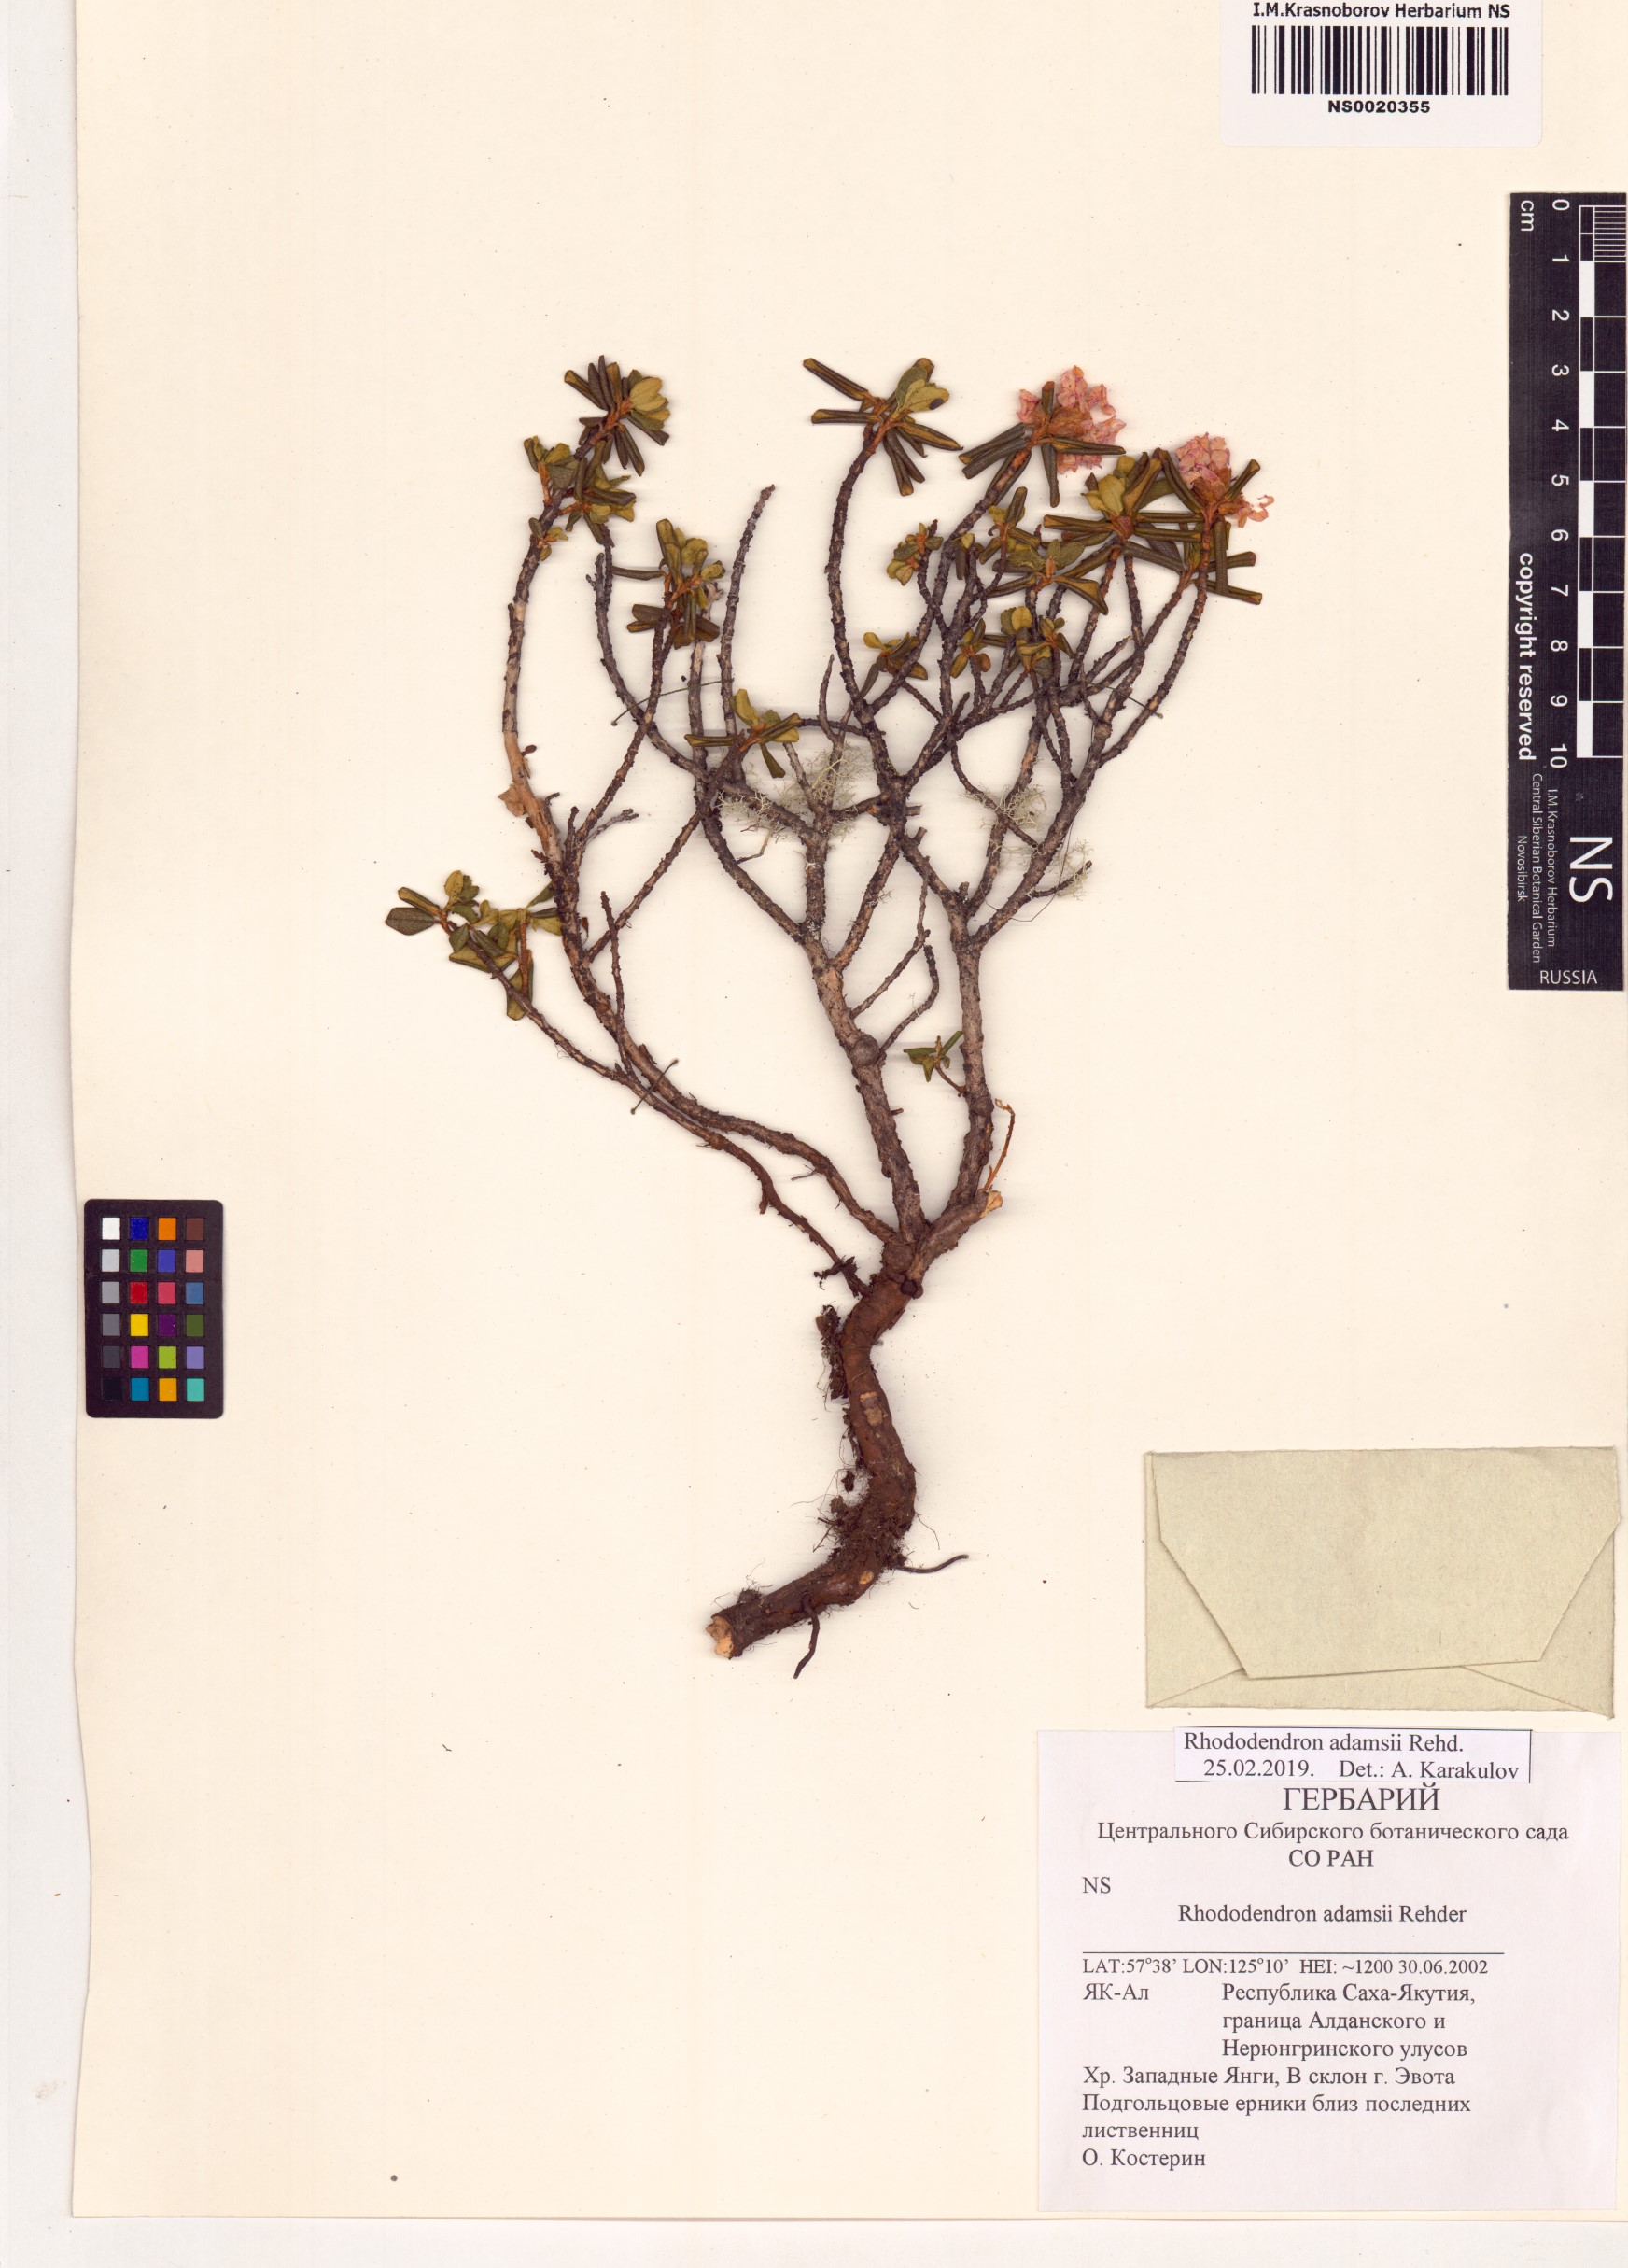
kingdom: Plantae
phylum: Tracheophyta
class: Magnoliopsida
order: Ericales
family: Ericaceae
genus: Rhododendron
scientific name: Rhododendron adamsii
